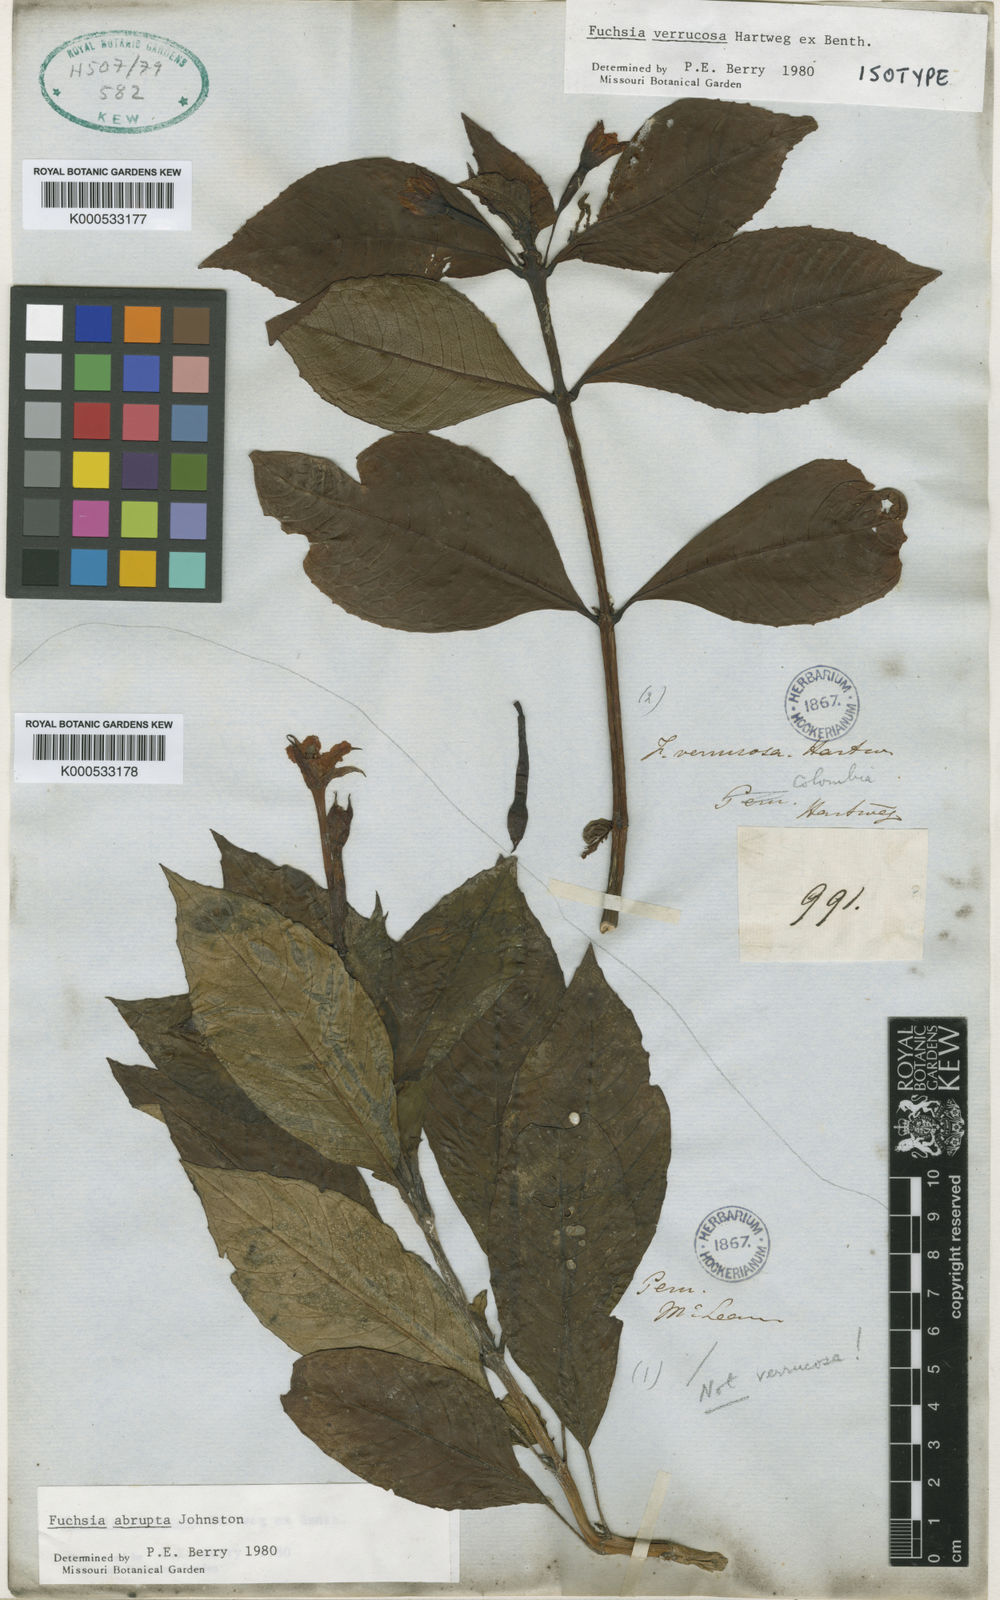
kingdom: Plantae
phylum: Tracheophyta
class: Magnoliopsida
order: Myrtales
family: Onagraceae
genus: Fuchsia
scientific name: Fuchsia verrucosa
